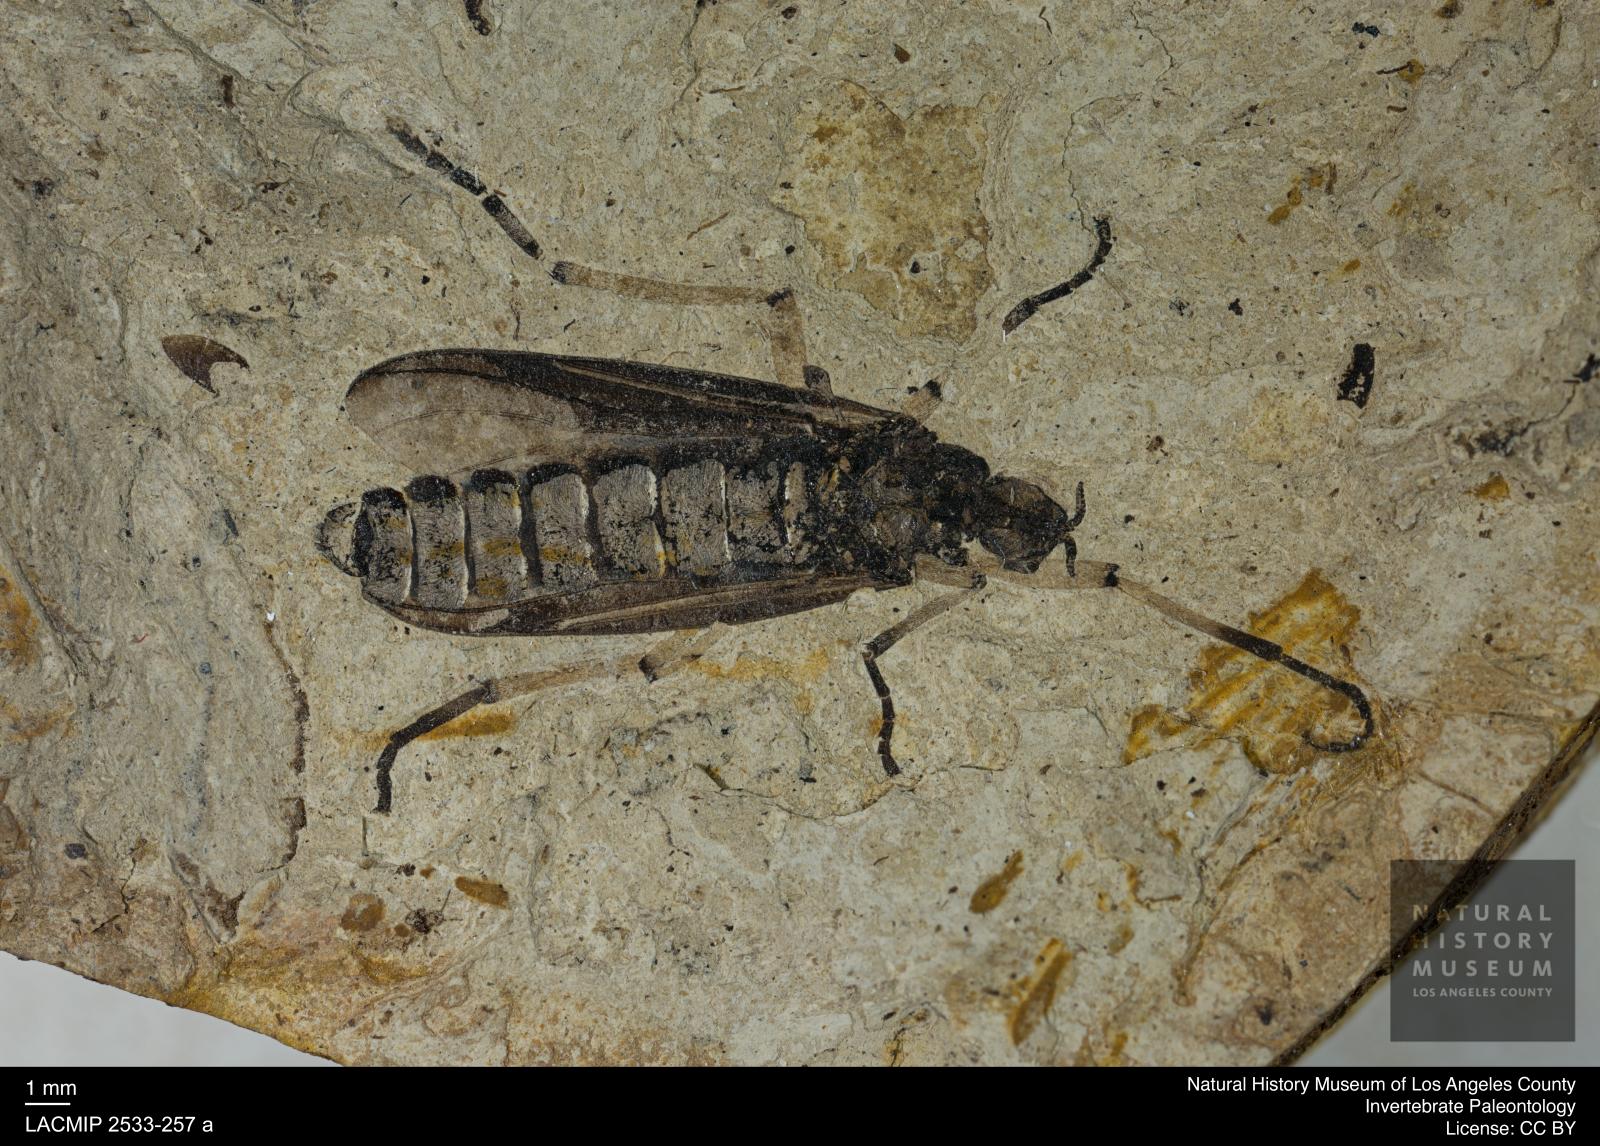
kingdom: Animalia
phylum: Arthropoda
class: Insecta
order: Diptera
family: Bibionidae
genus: Plecia
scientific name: Plecia
